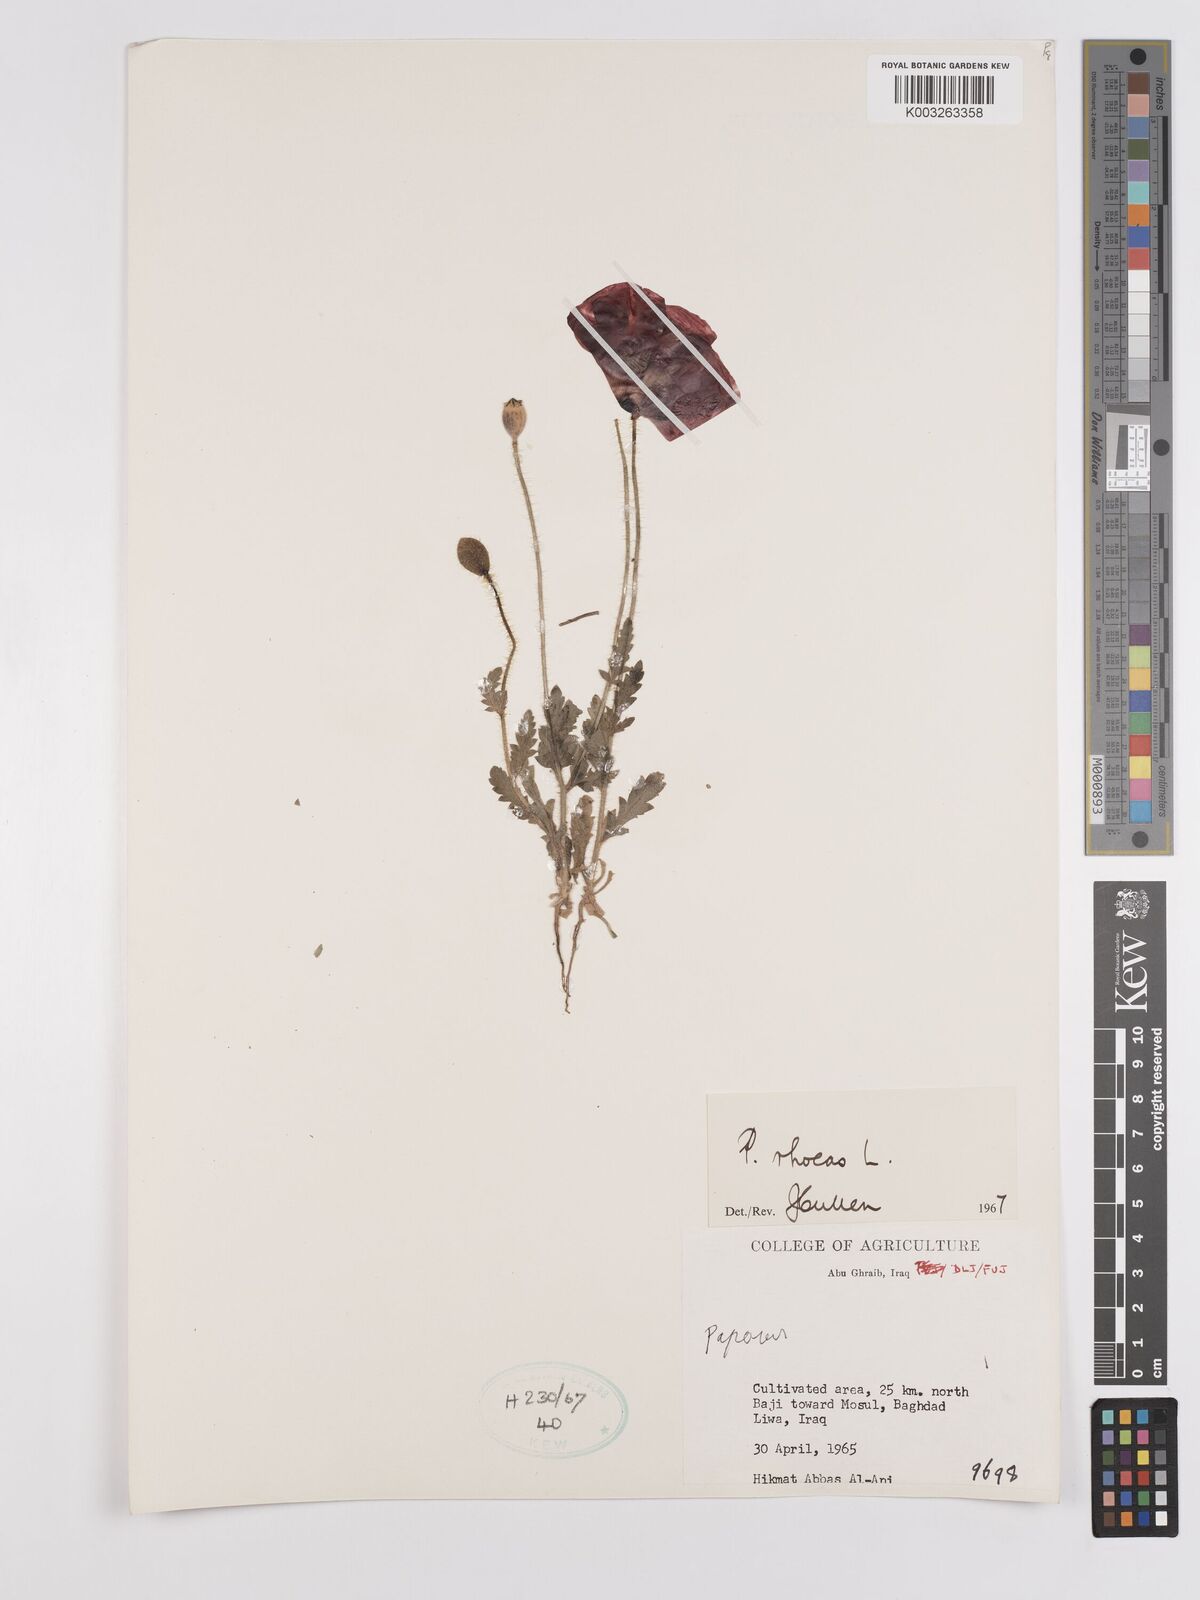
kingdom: Plantae
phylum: Tracheophyta
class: Magnoliopsida
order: Ranunculales
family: Papaveraceae
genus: Papaver
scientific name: Papaver rhoeas
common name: Corn poppy
